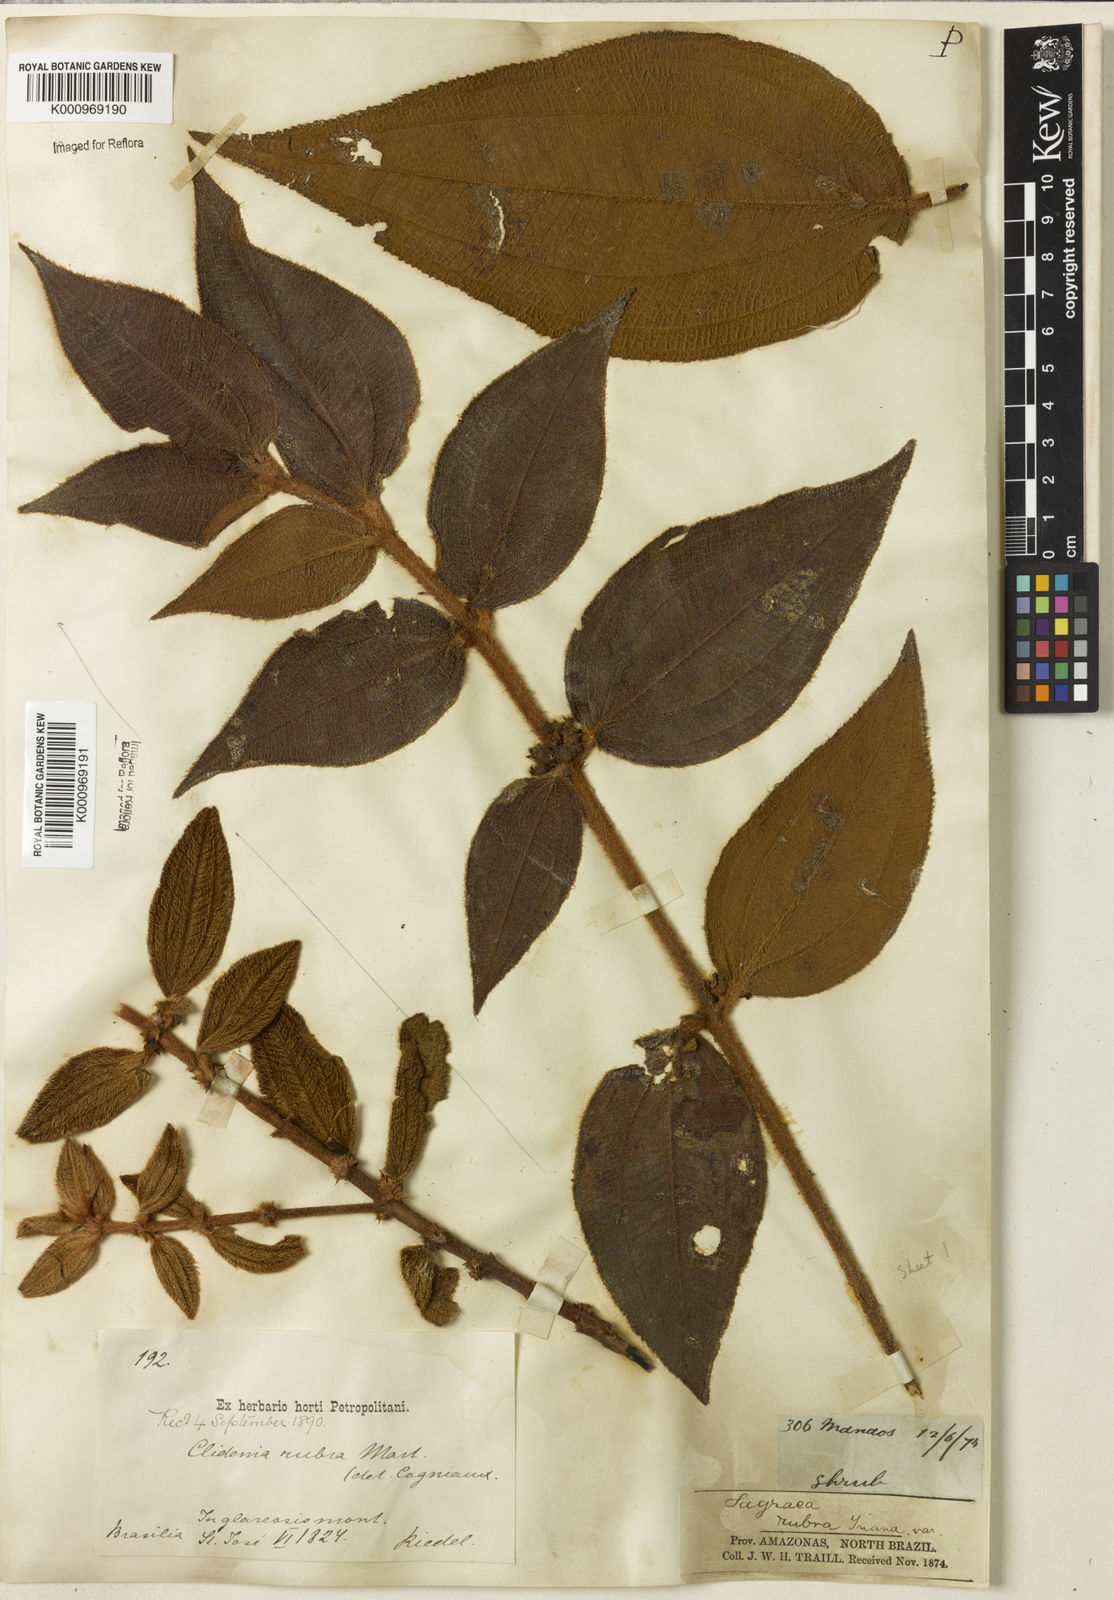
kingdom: Plantae
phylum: Tracheophyta
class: Magnoliopsida
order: Myrtales
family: Melastomataceae
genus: Miconia
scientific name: Miconia rubra
